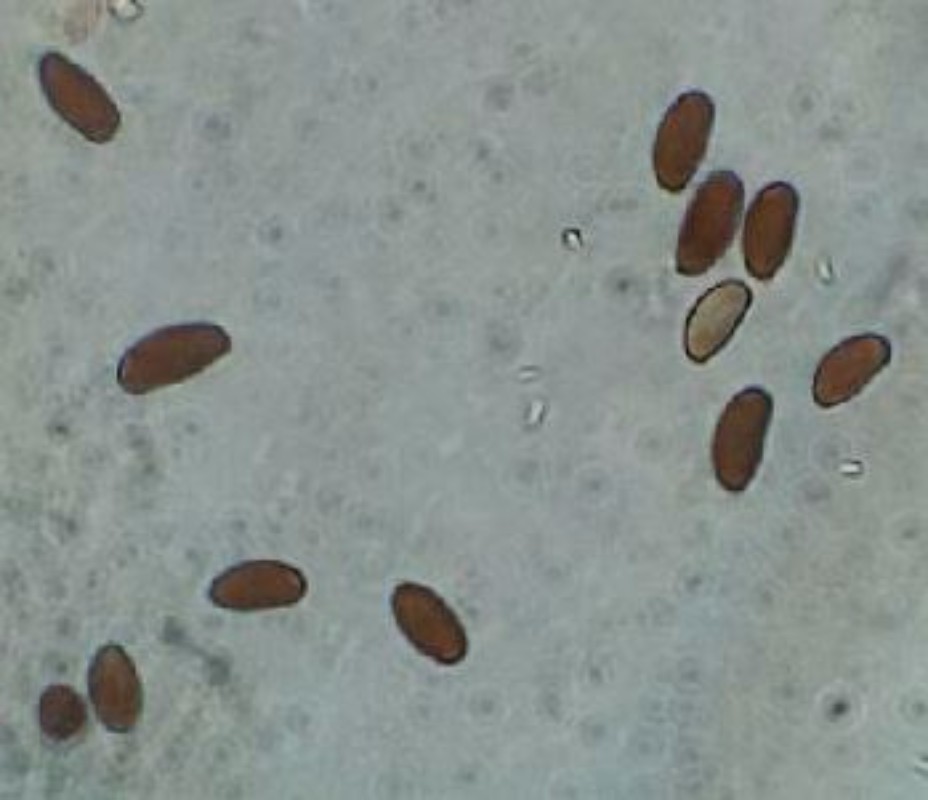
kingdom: Fungi
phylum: Basidiomycota
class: Agaricomycetes
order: Agaricales
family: Psathyrellaceae
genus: Coprinellus
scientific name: Coprinellus heptemerus
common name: hjorte-blækhat
